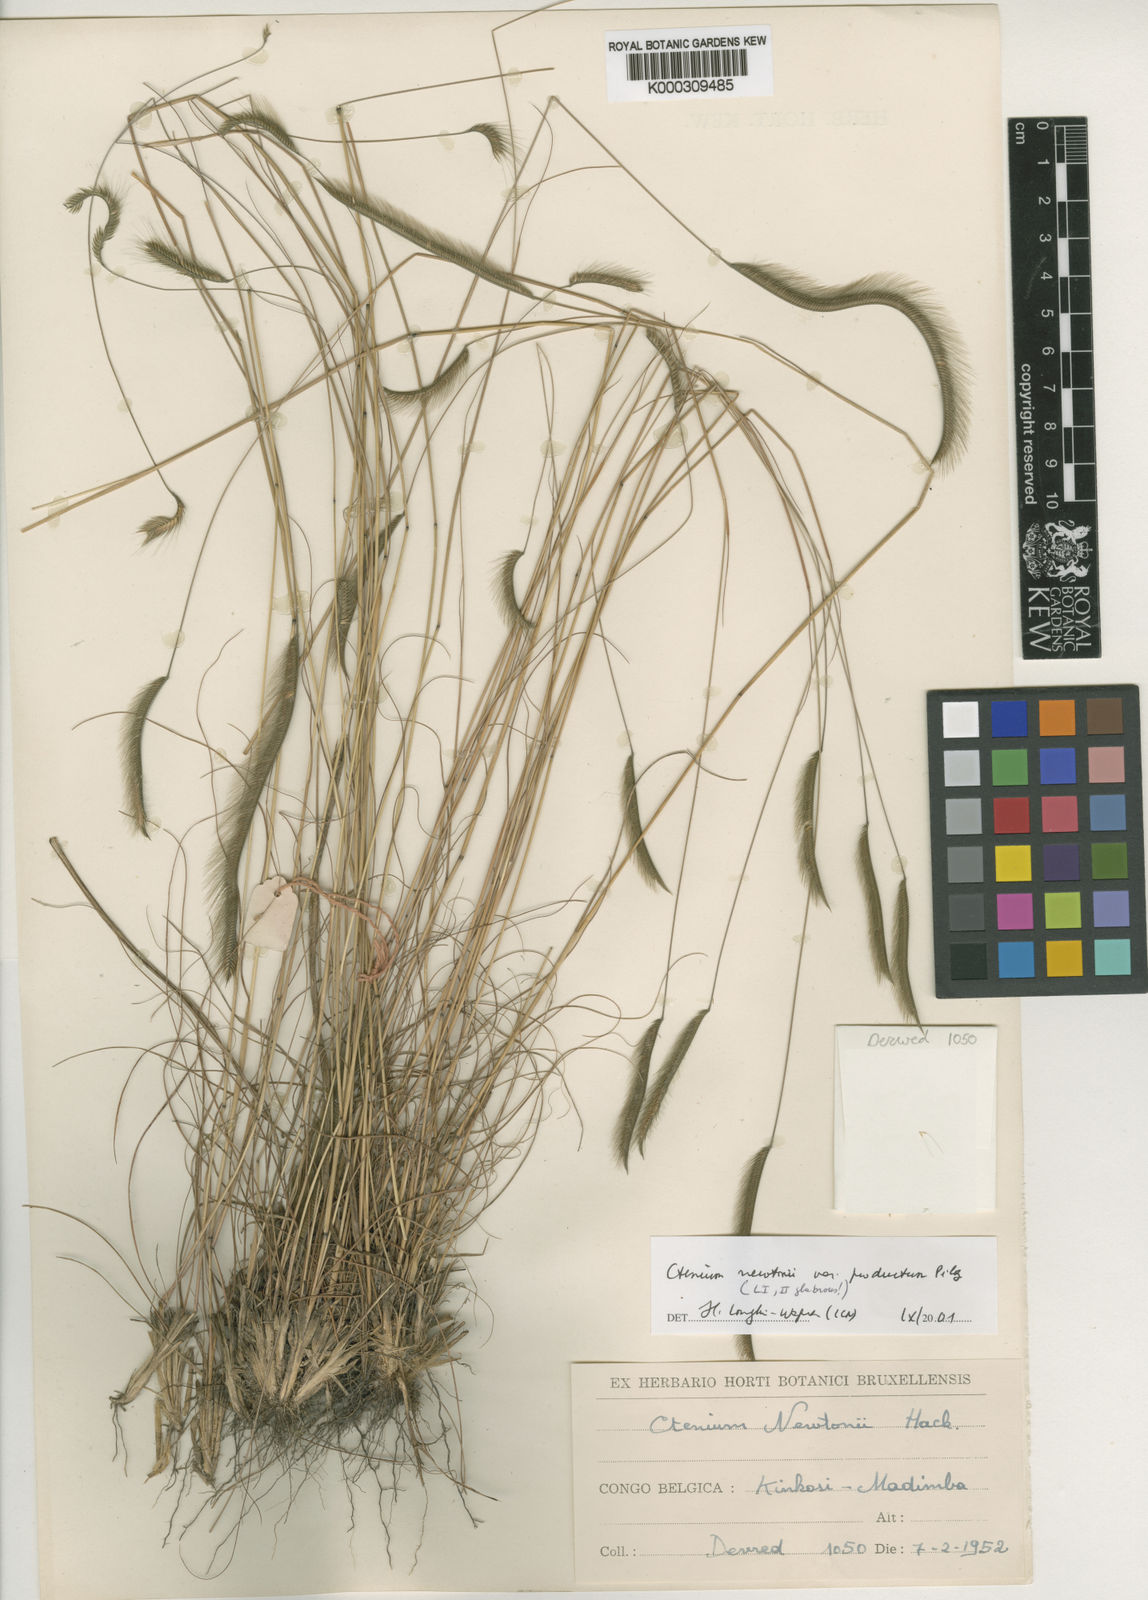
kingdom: Plantae
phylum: Tracheophyta
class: Liliopsida
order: Poales
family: Poaceae
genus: Ctenium
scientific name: Ctenium newtonii
